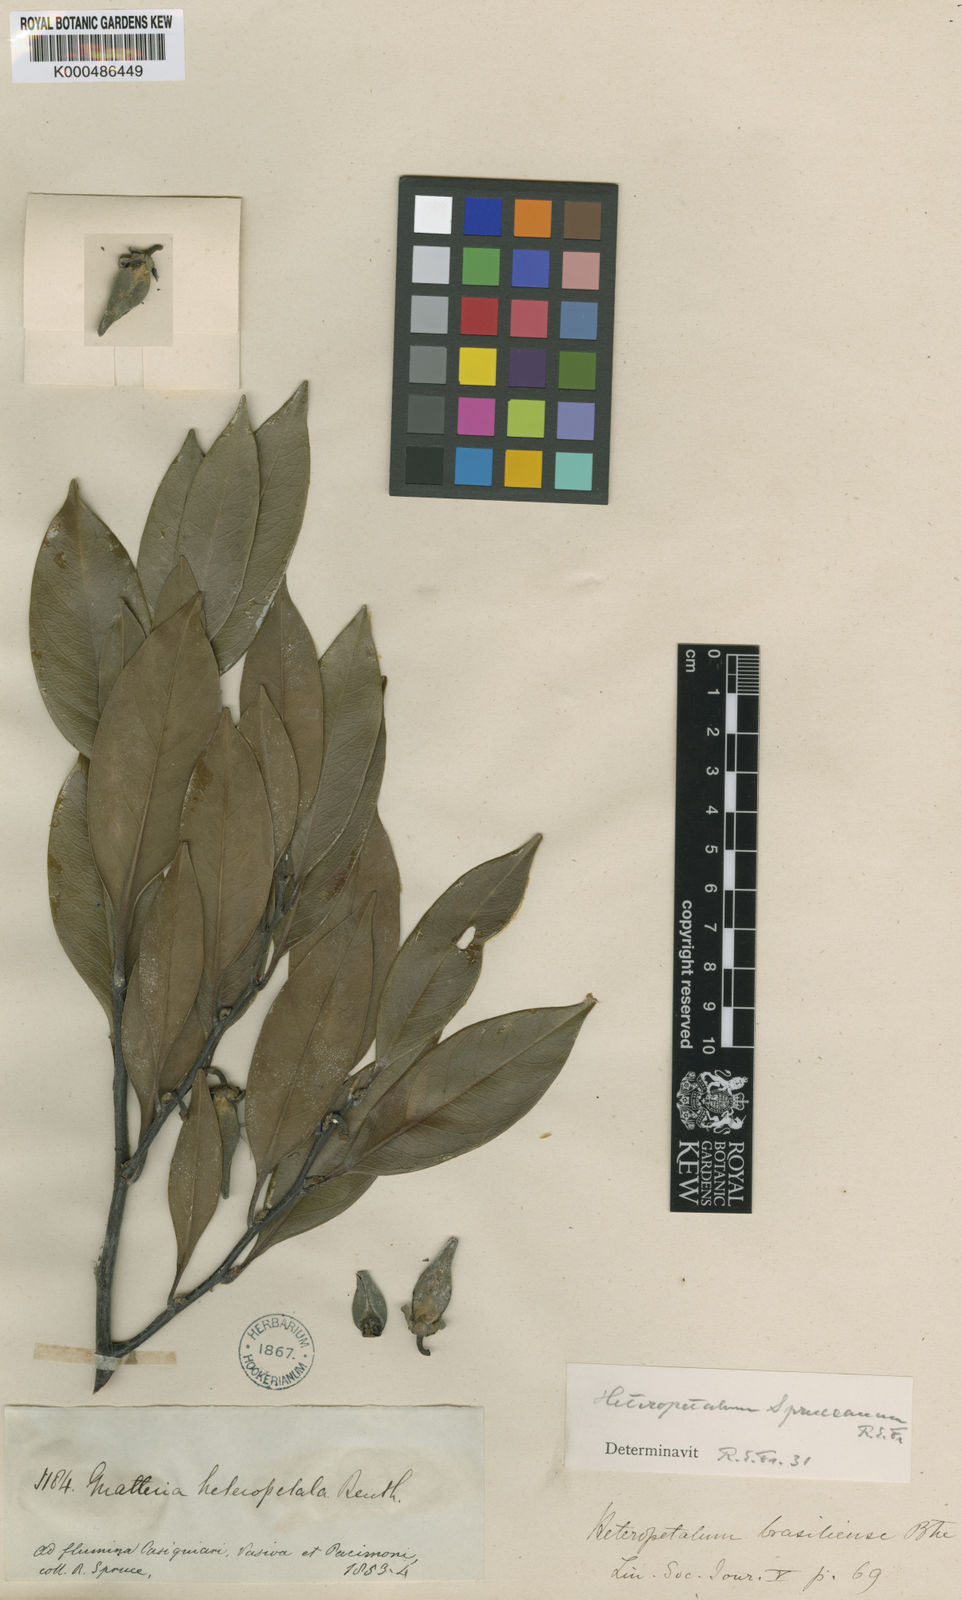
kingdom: Plantae
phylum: Tracheophyta
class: Magnoliopsida
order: Magnoliales
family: Annonaceae
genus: Guatteria
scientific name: Guatteria heteropetala
